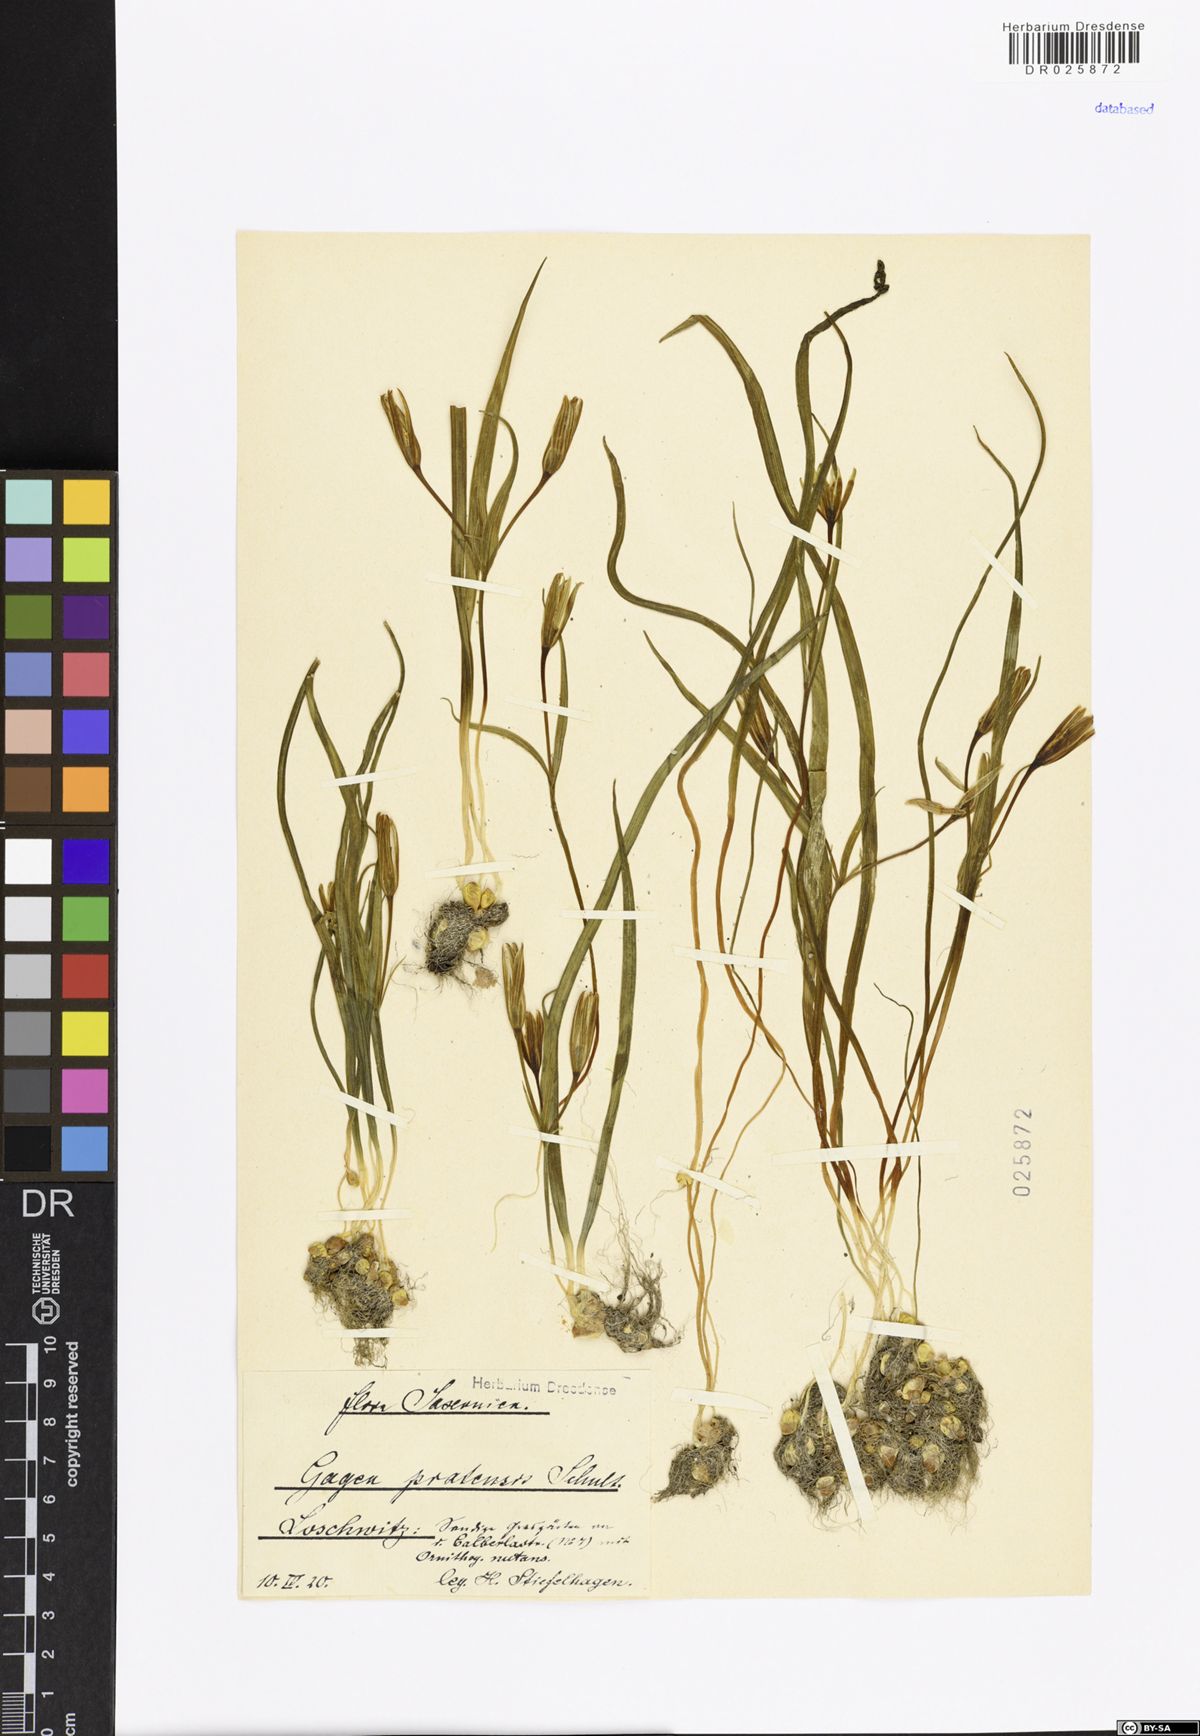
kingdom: Plantae
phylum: Tracheophyta
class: Liliopsida
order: Liliales
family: Liliaceae
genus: Gagea
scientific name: Gagea pratensis
